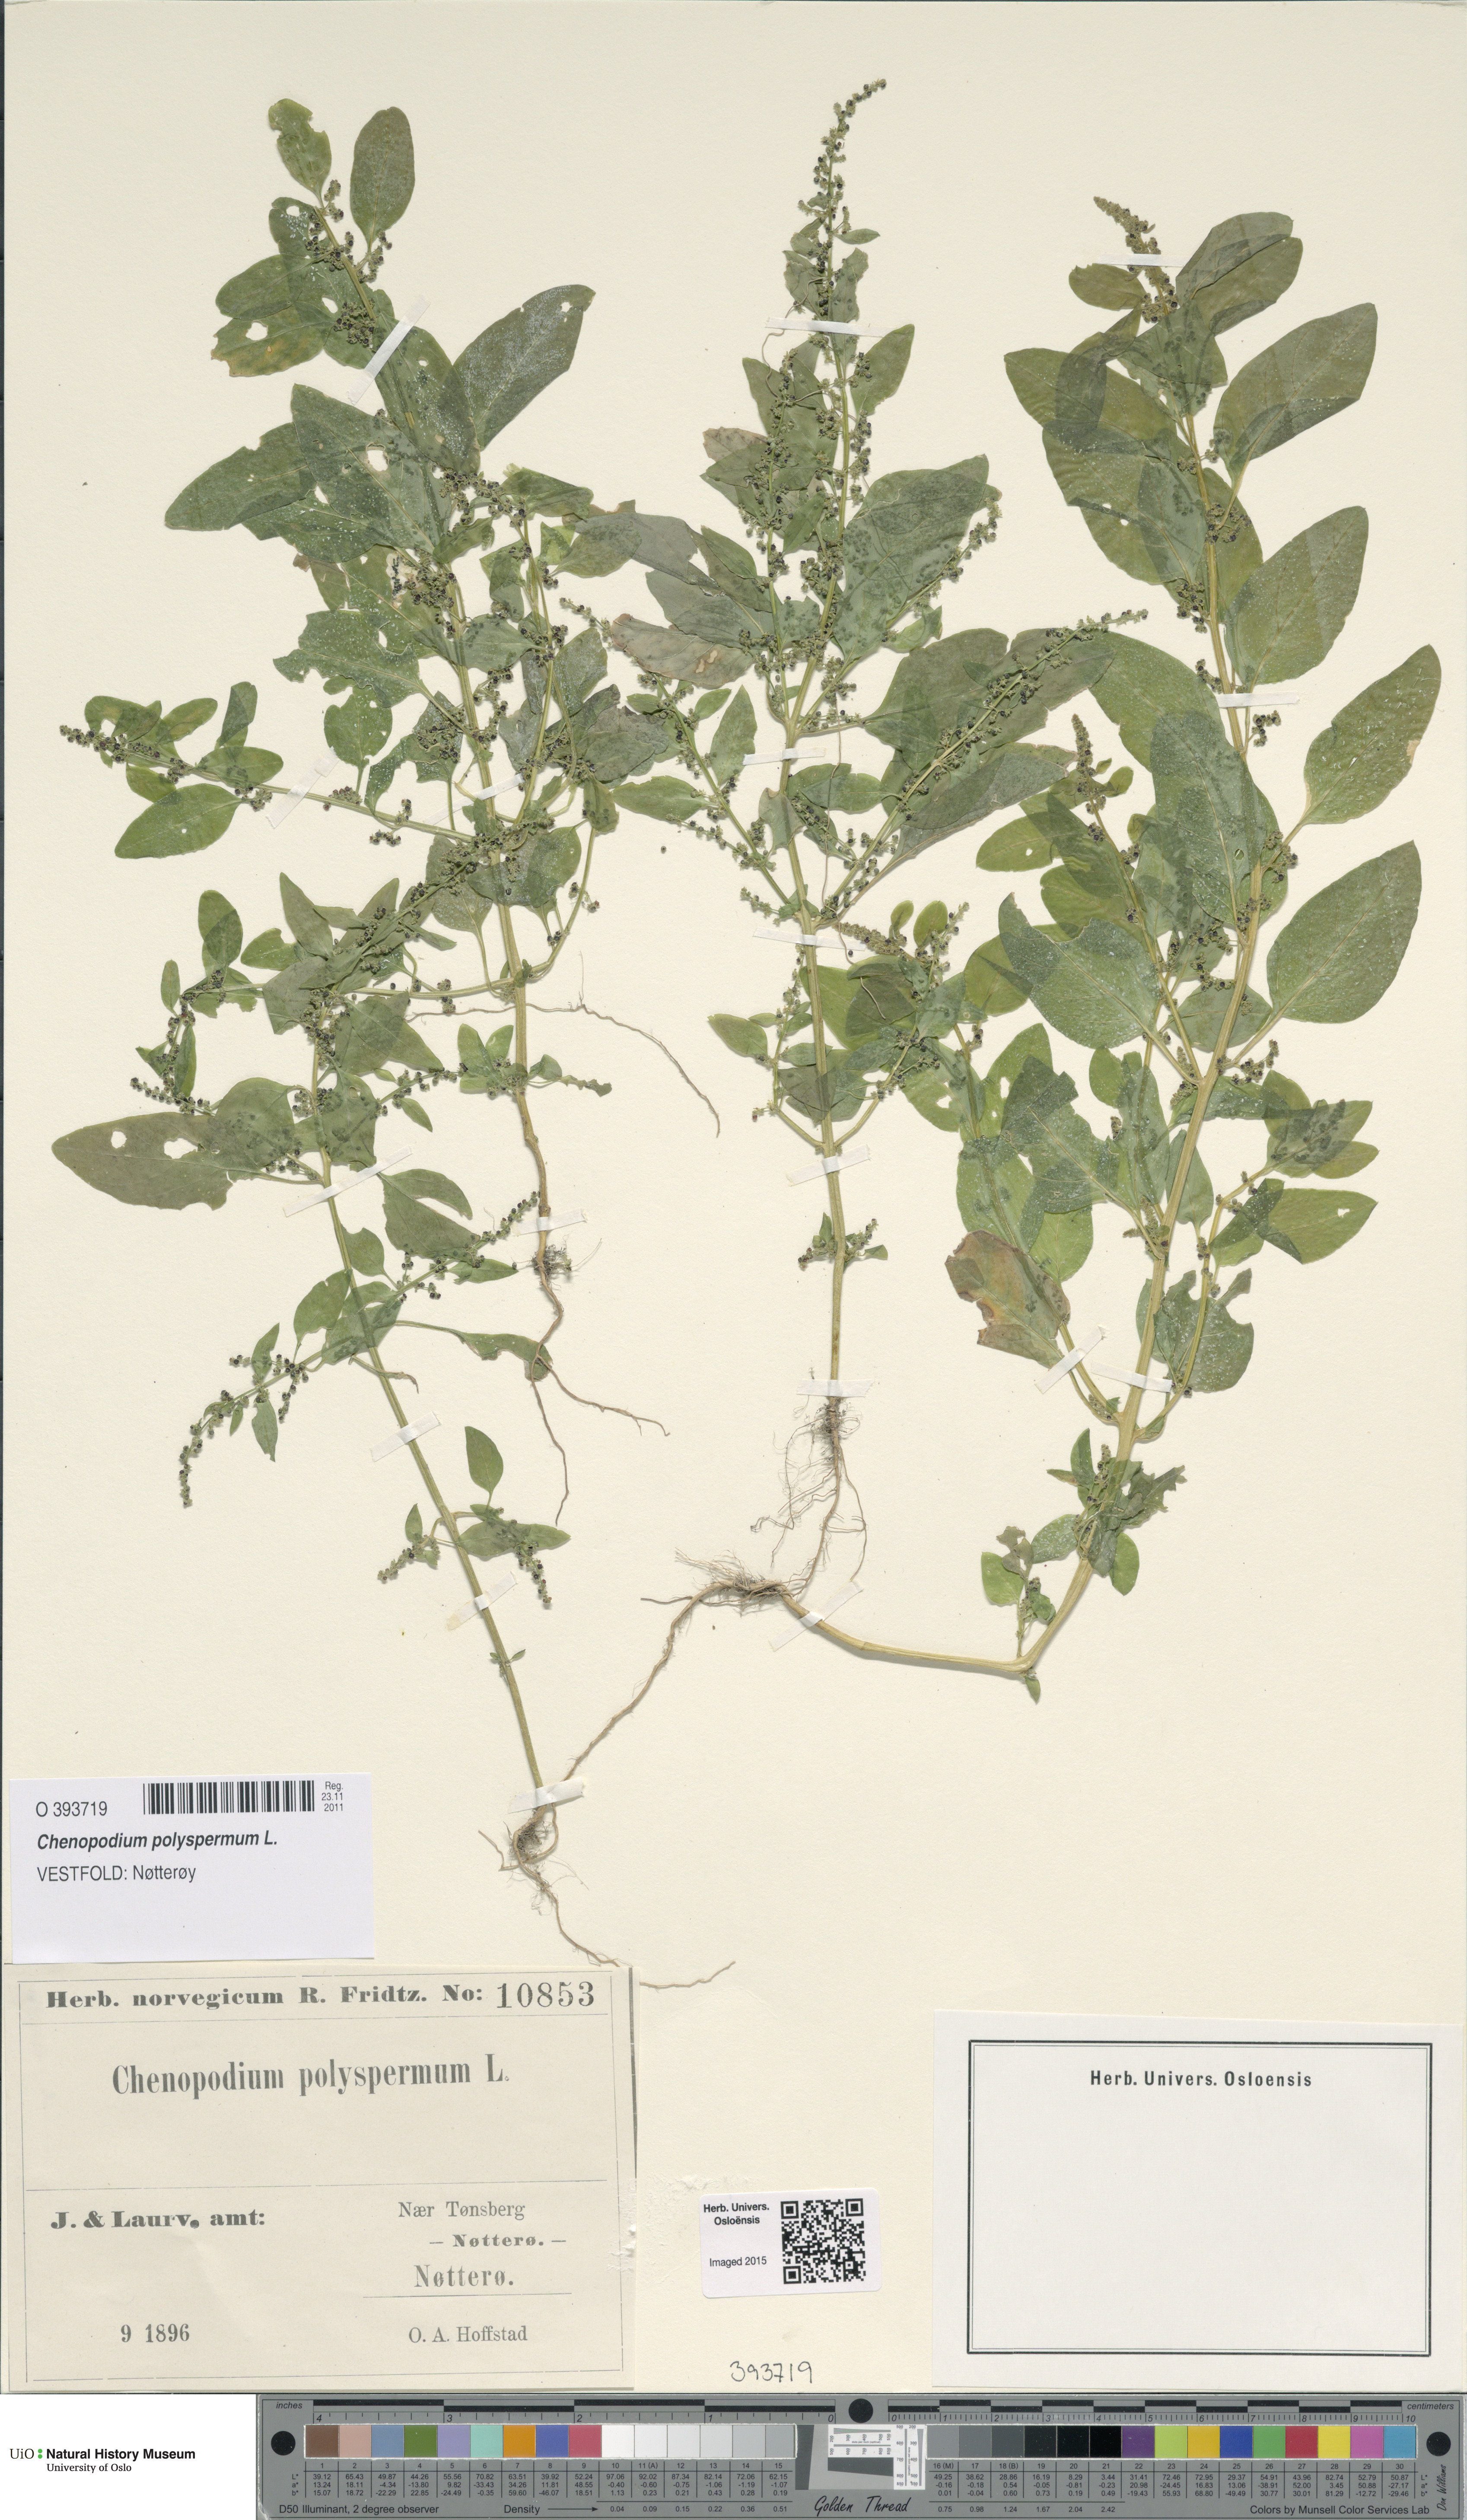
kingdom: Plantae
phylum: Tracheophyta
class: Magnoliopsida
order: Caryophyllales
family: Amaranthaceae
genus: Lipandra
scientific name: Lipandra polysperma
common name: Many-seed goosefoot
